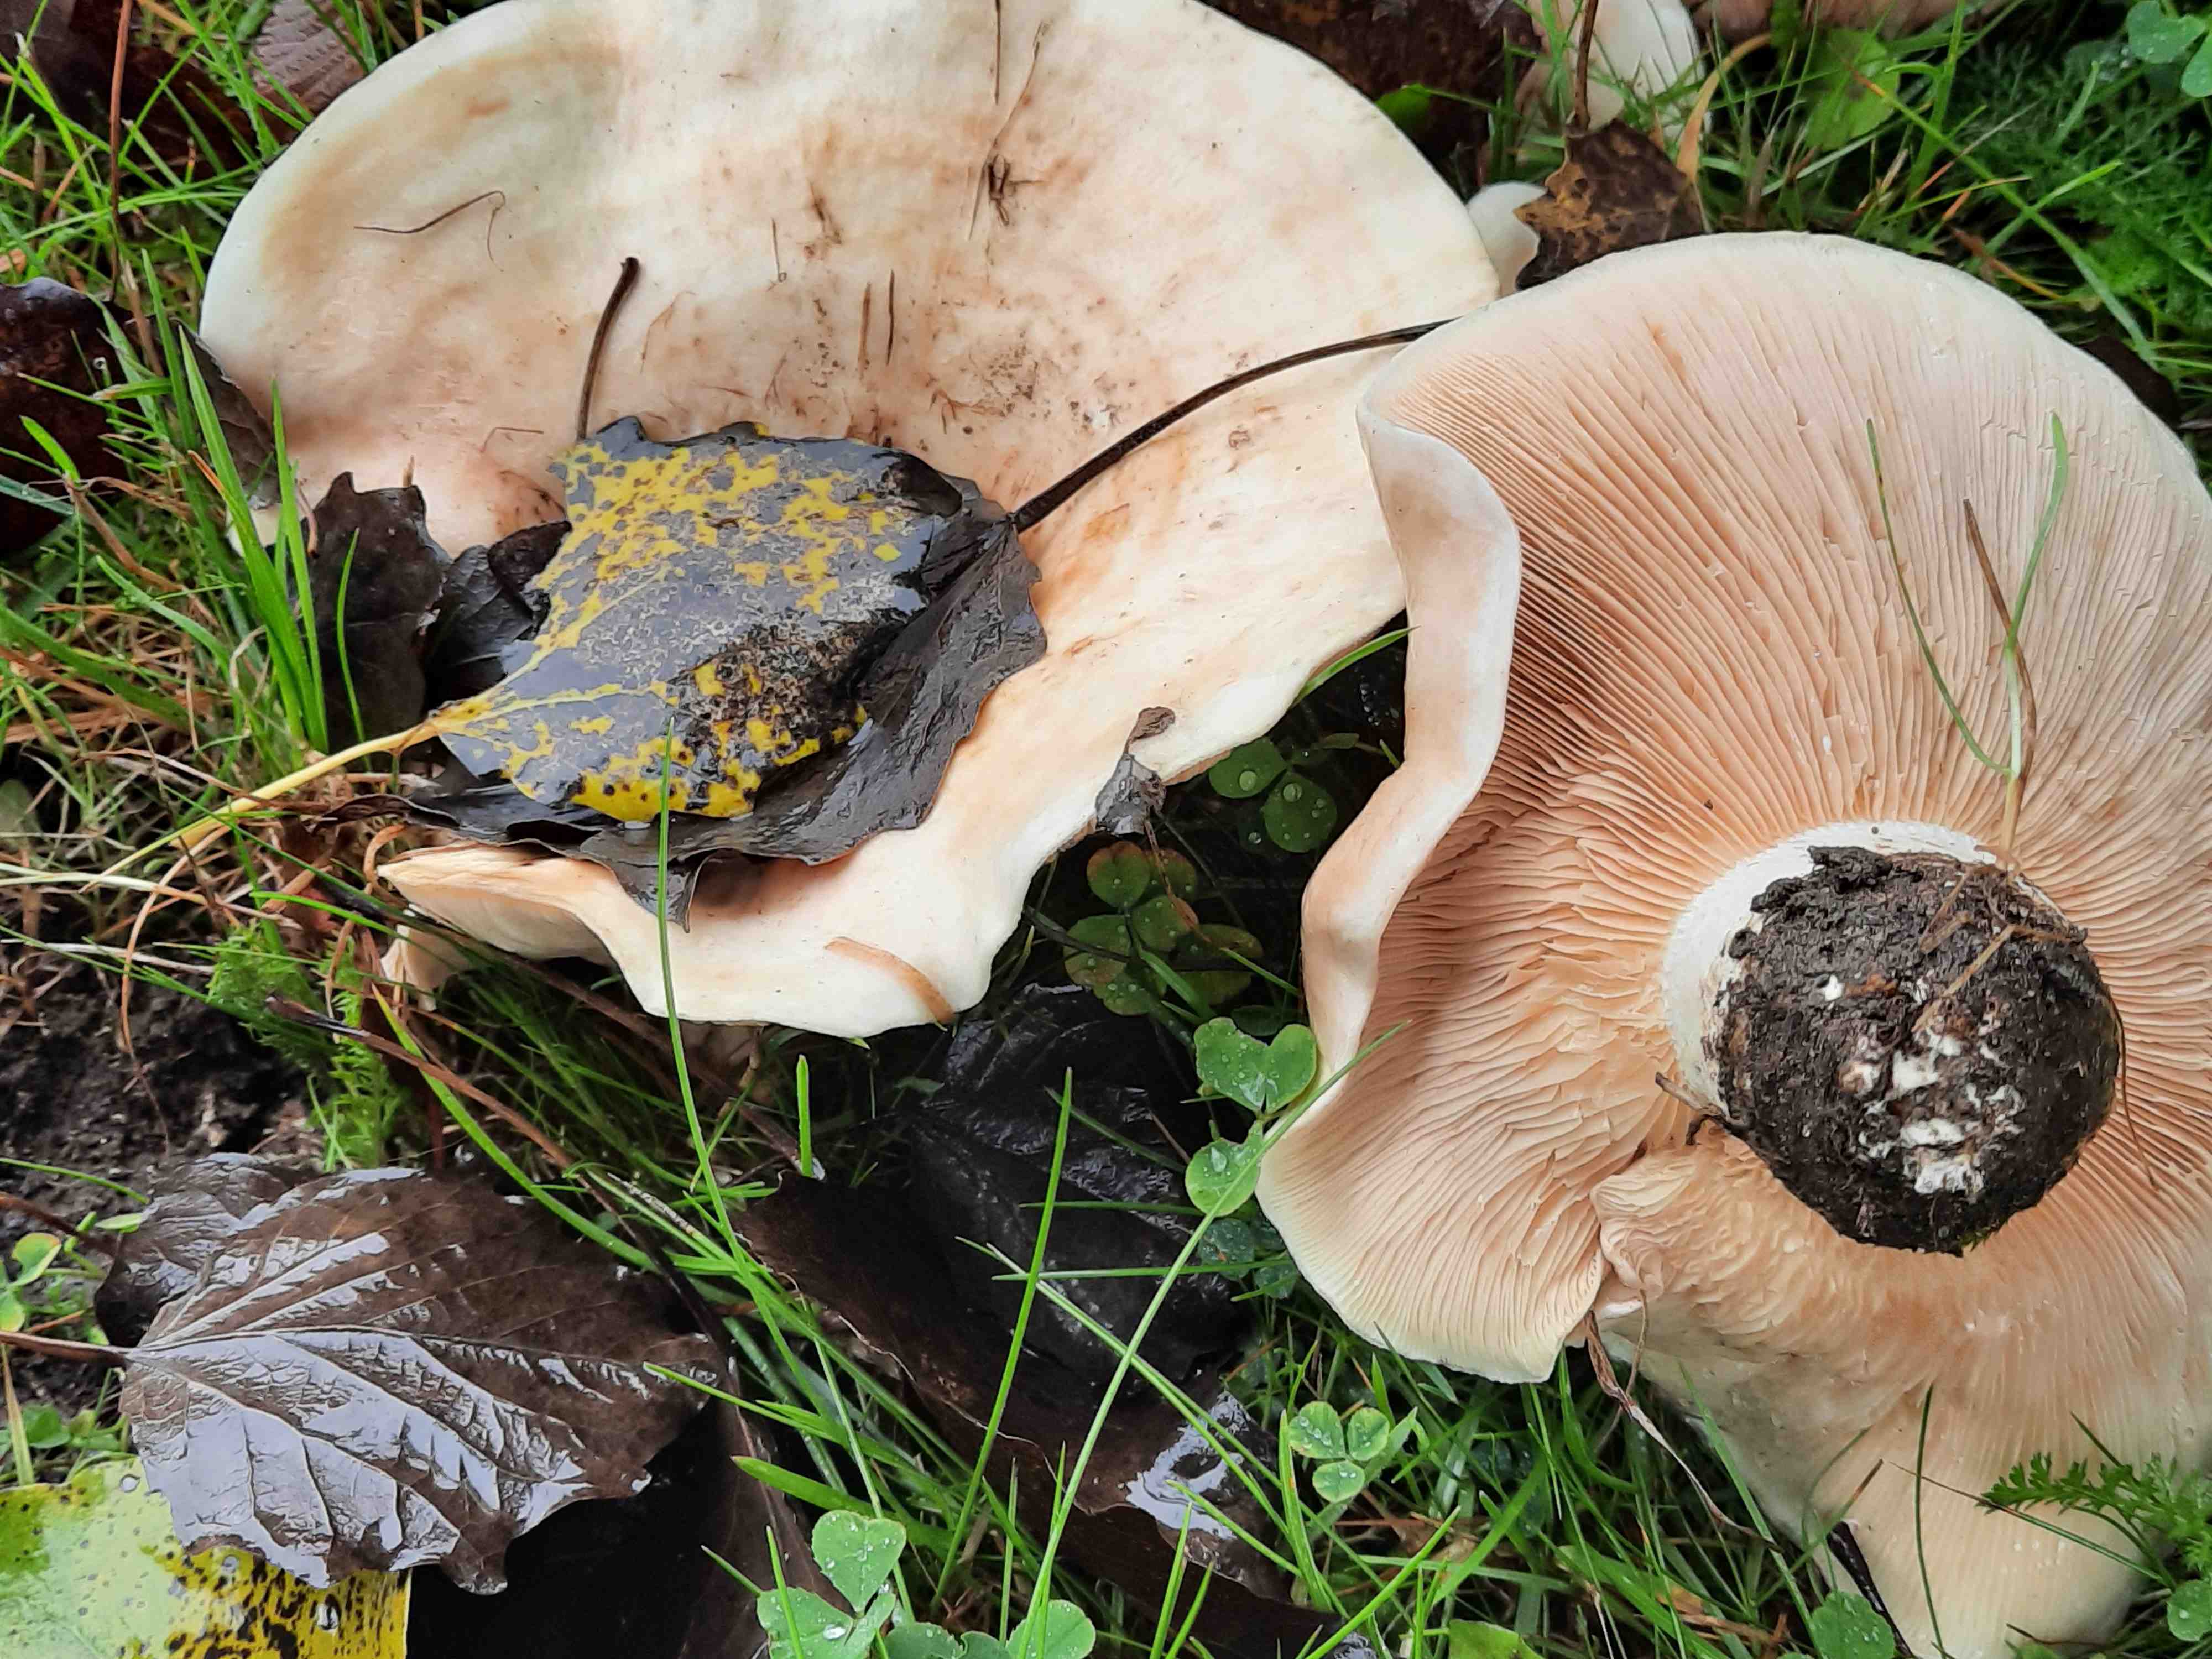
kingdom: Fungi
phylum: Basidiomycota
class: Agaricomycetes
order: Russulales
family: Russulaceae
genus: Lactarius
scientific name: Lactarius controversus
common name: rosabladet mælkehat
